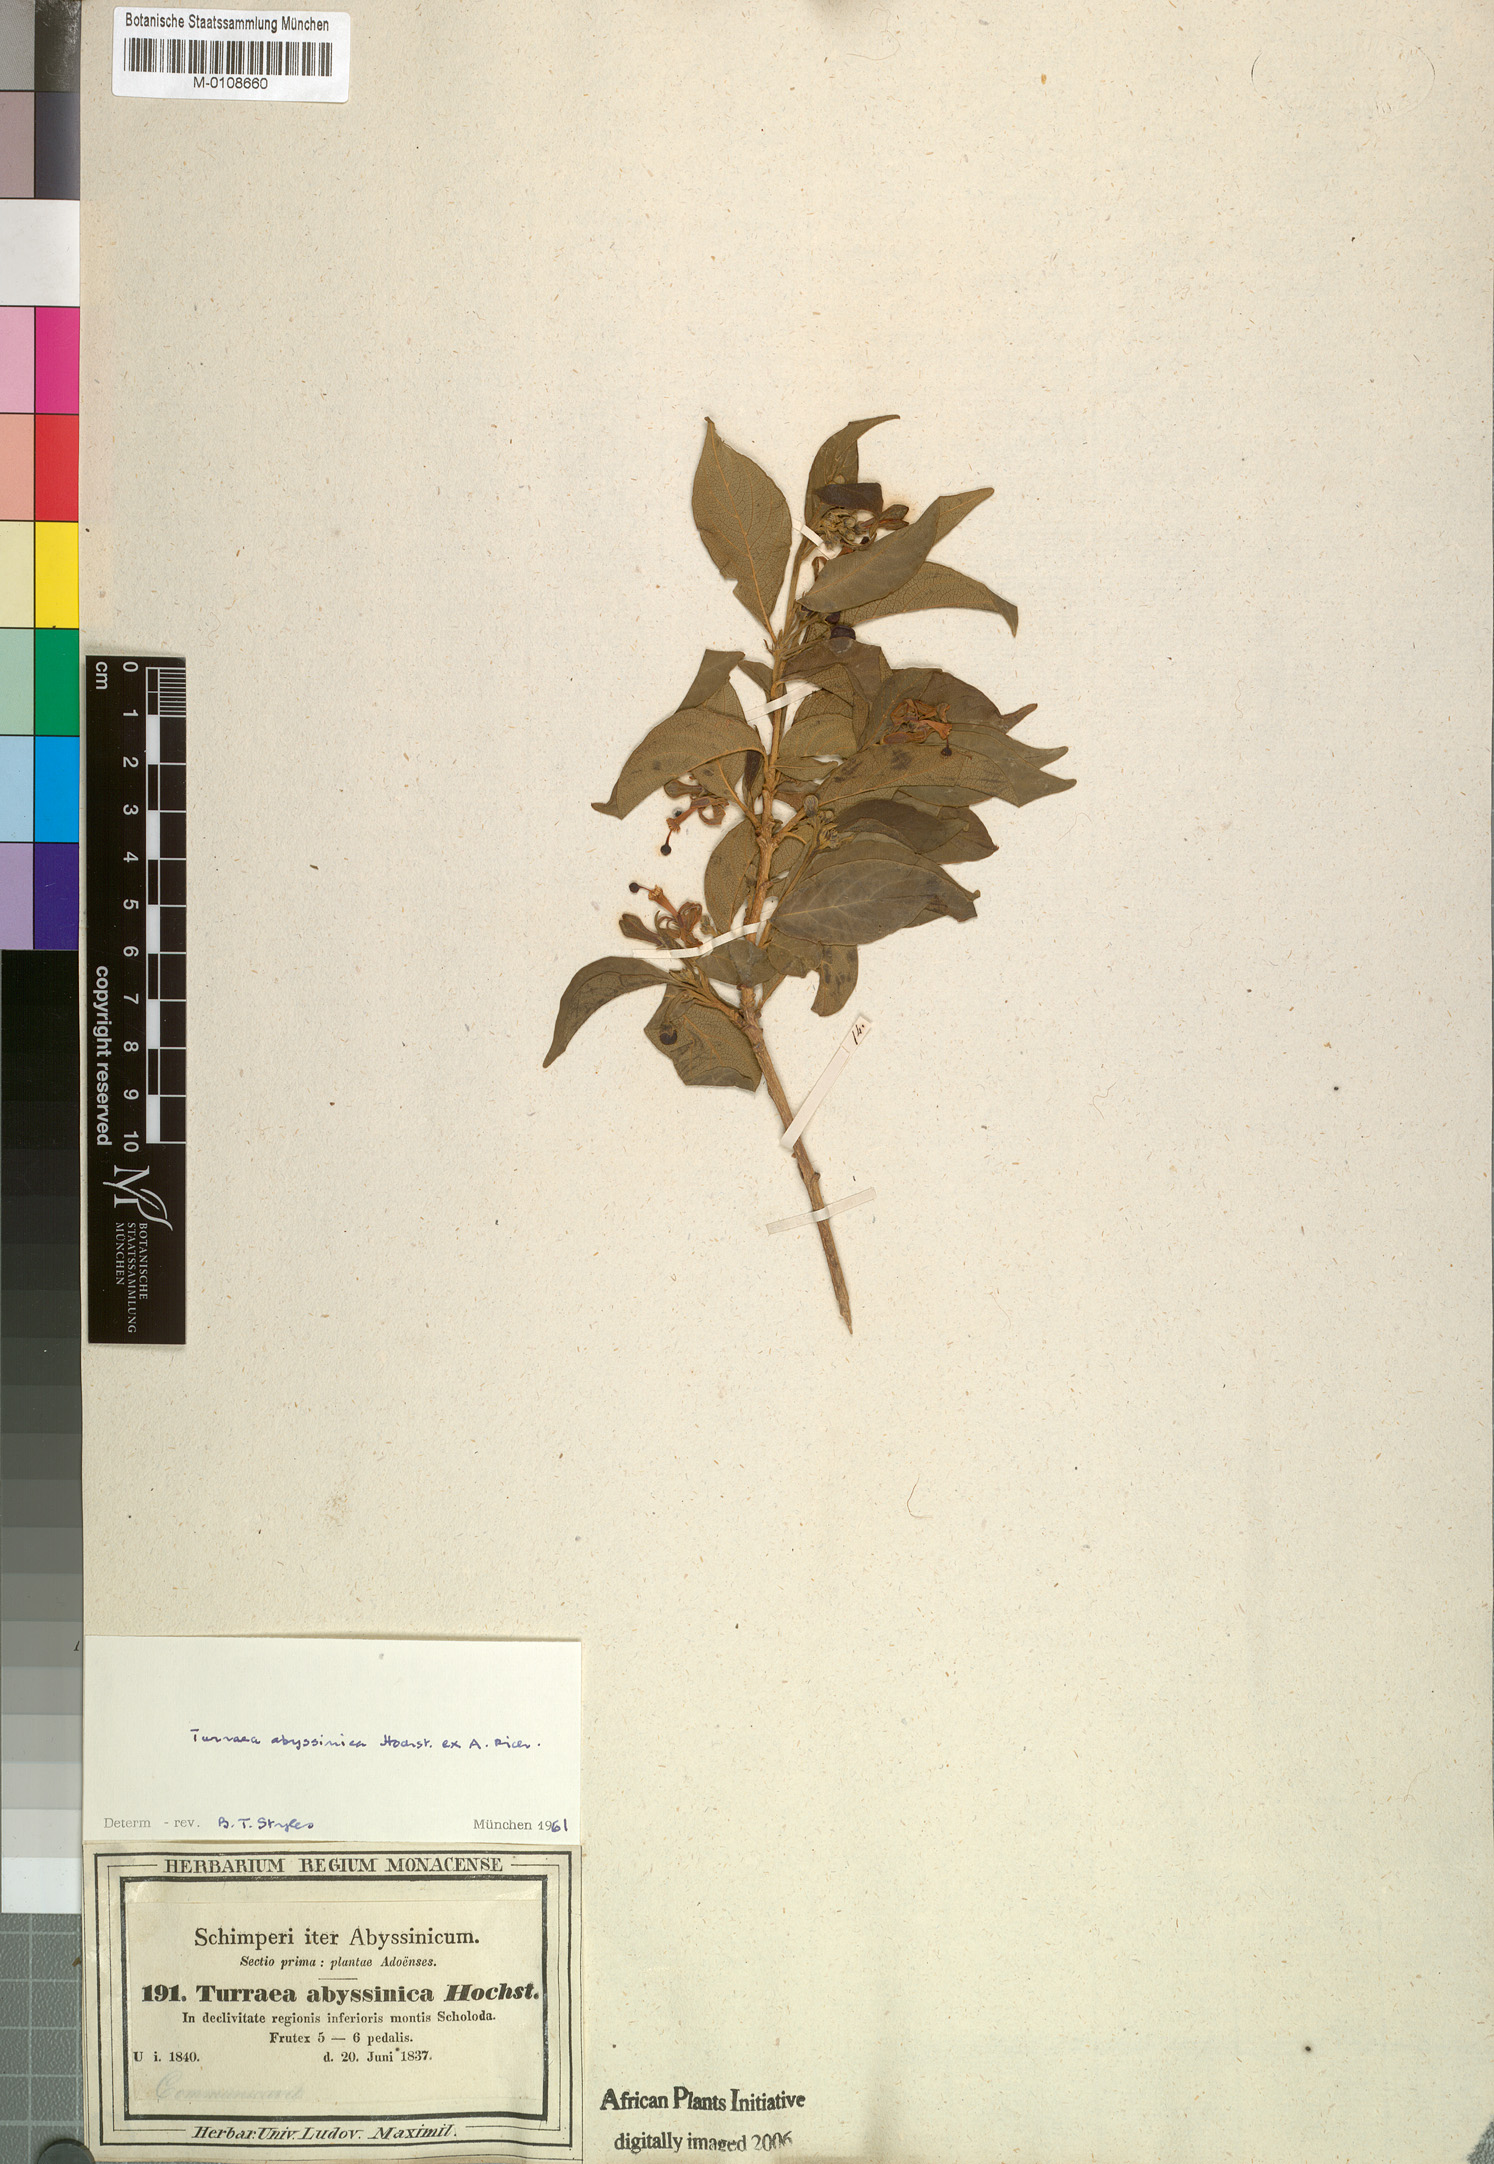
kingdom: Plantae
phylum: Tracheophyta
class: Magnoliopsida
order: Sapindales
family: Meliaceae
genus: Turraea
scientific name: Turraea abyssinica
